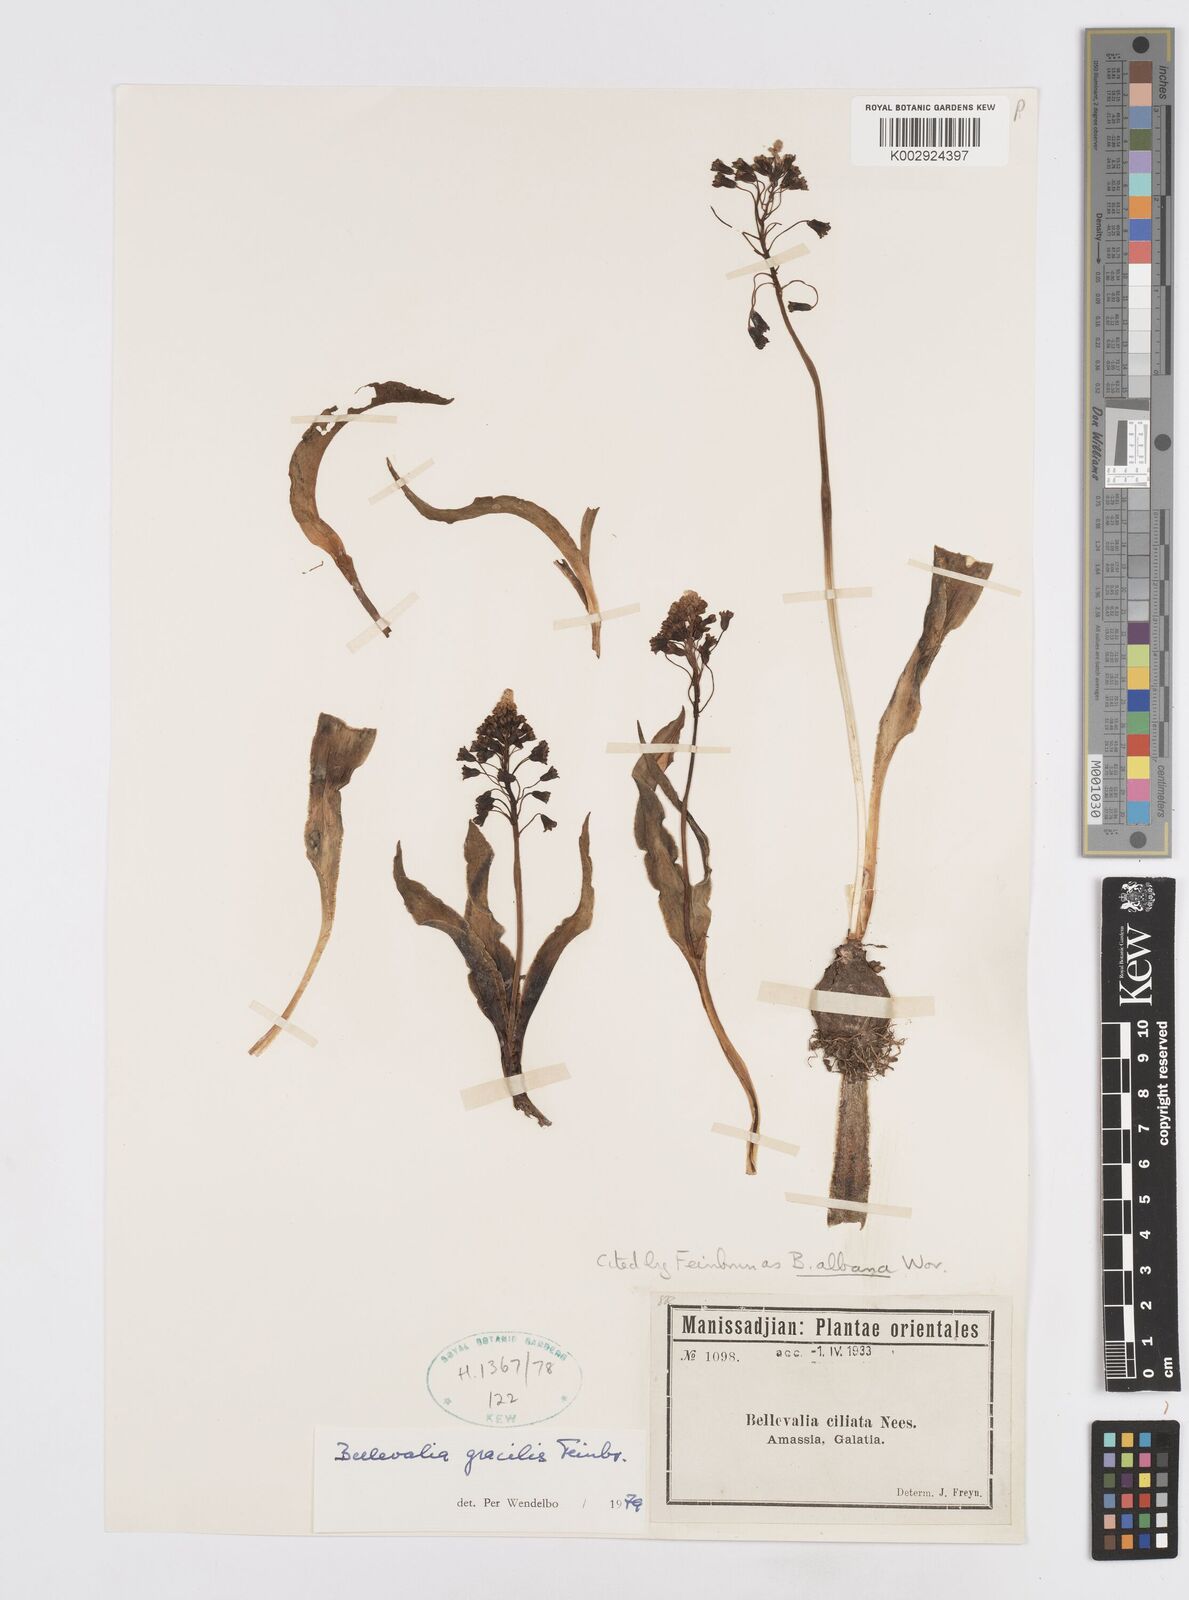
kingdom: Plantae
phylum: Tracheophyta
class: Liliopsida
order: Asparagales
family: Asparagaceae
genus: Bellevalia
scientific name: Bellevalia gracilis
